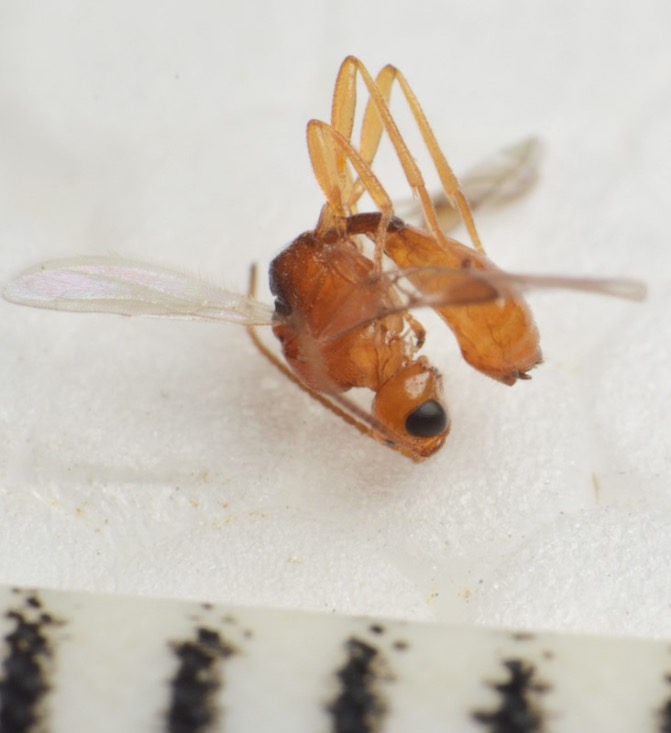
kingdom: Animalia
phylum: Arthropoda
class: Insecta
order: Hymenoptera
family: Braconidae
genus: Leiophron
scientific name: Leiophron reclinator
